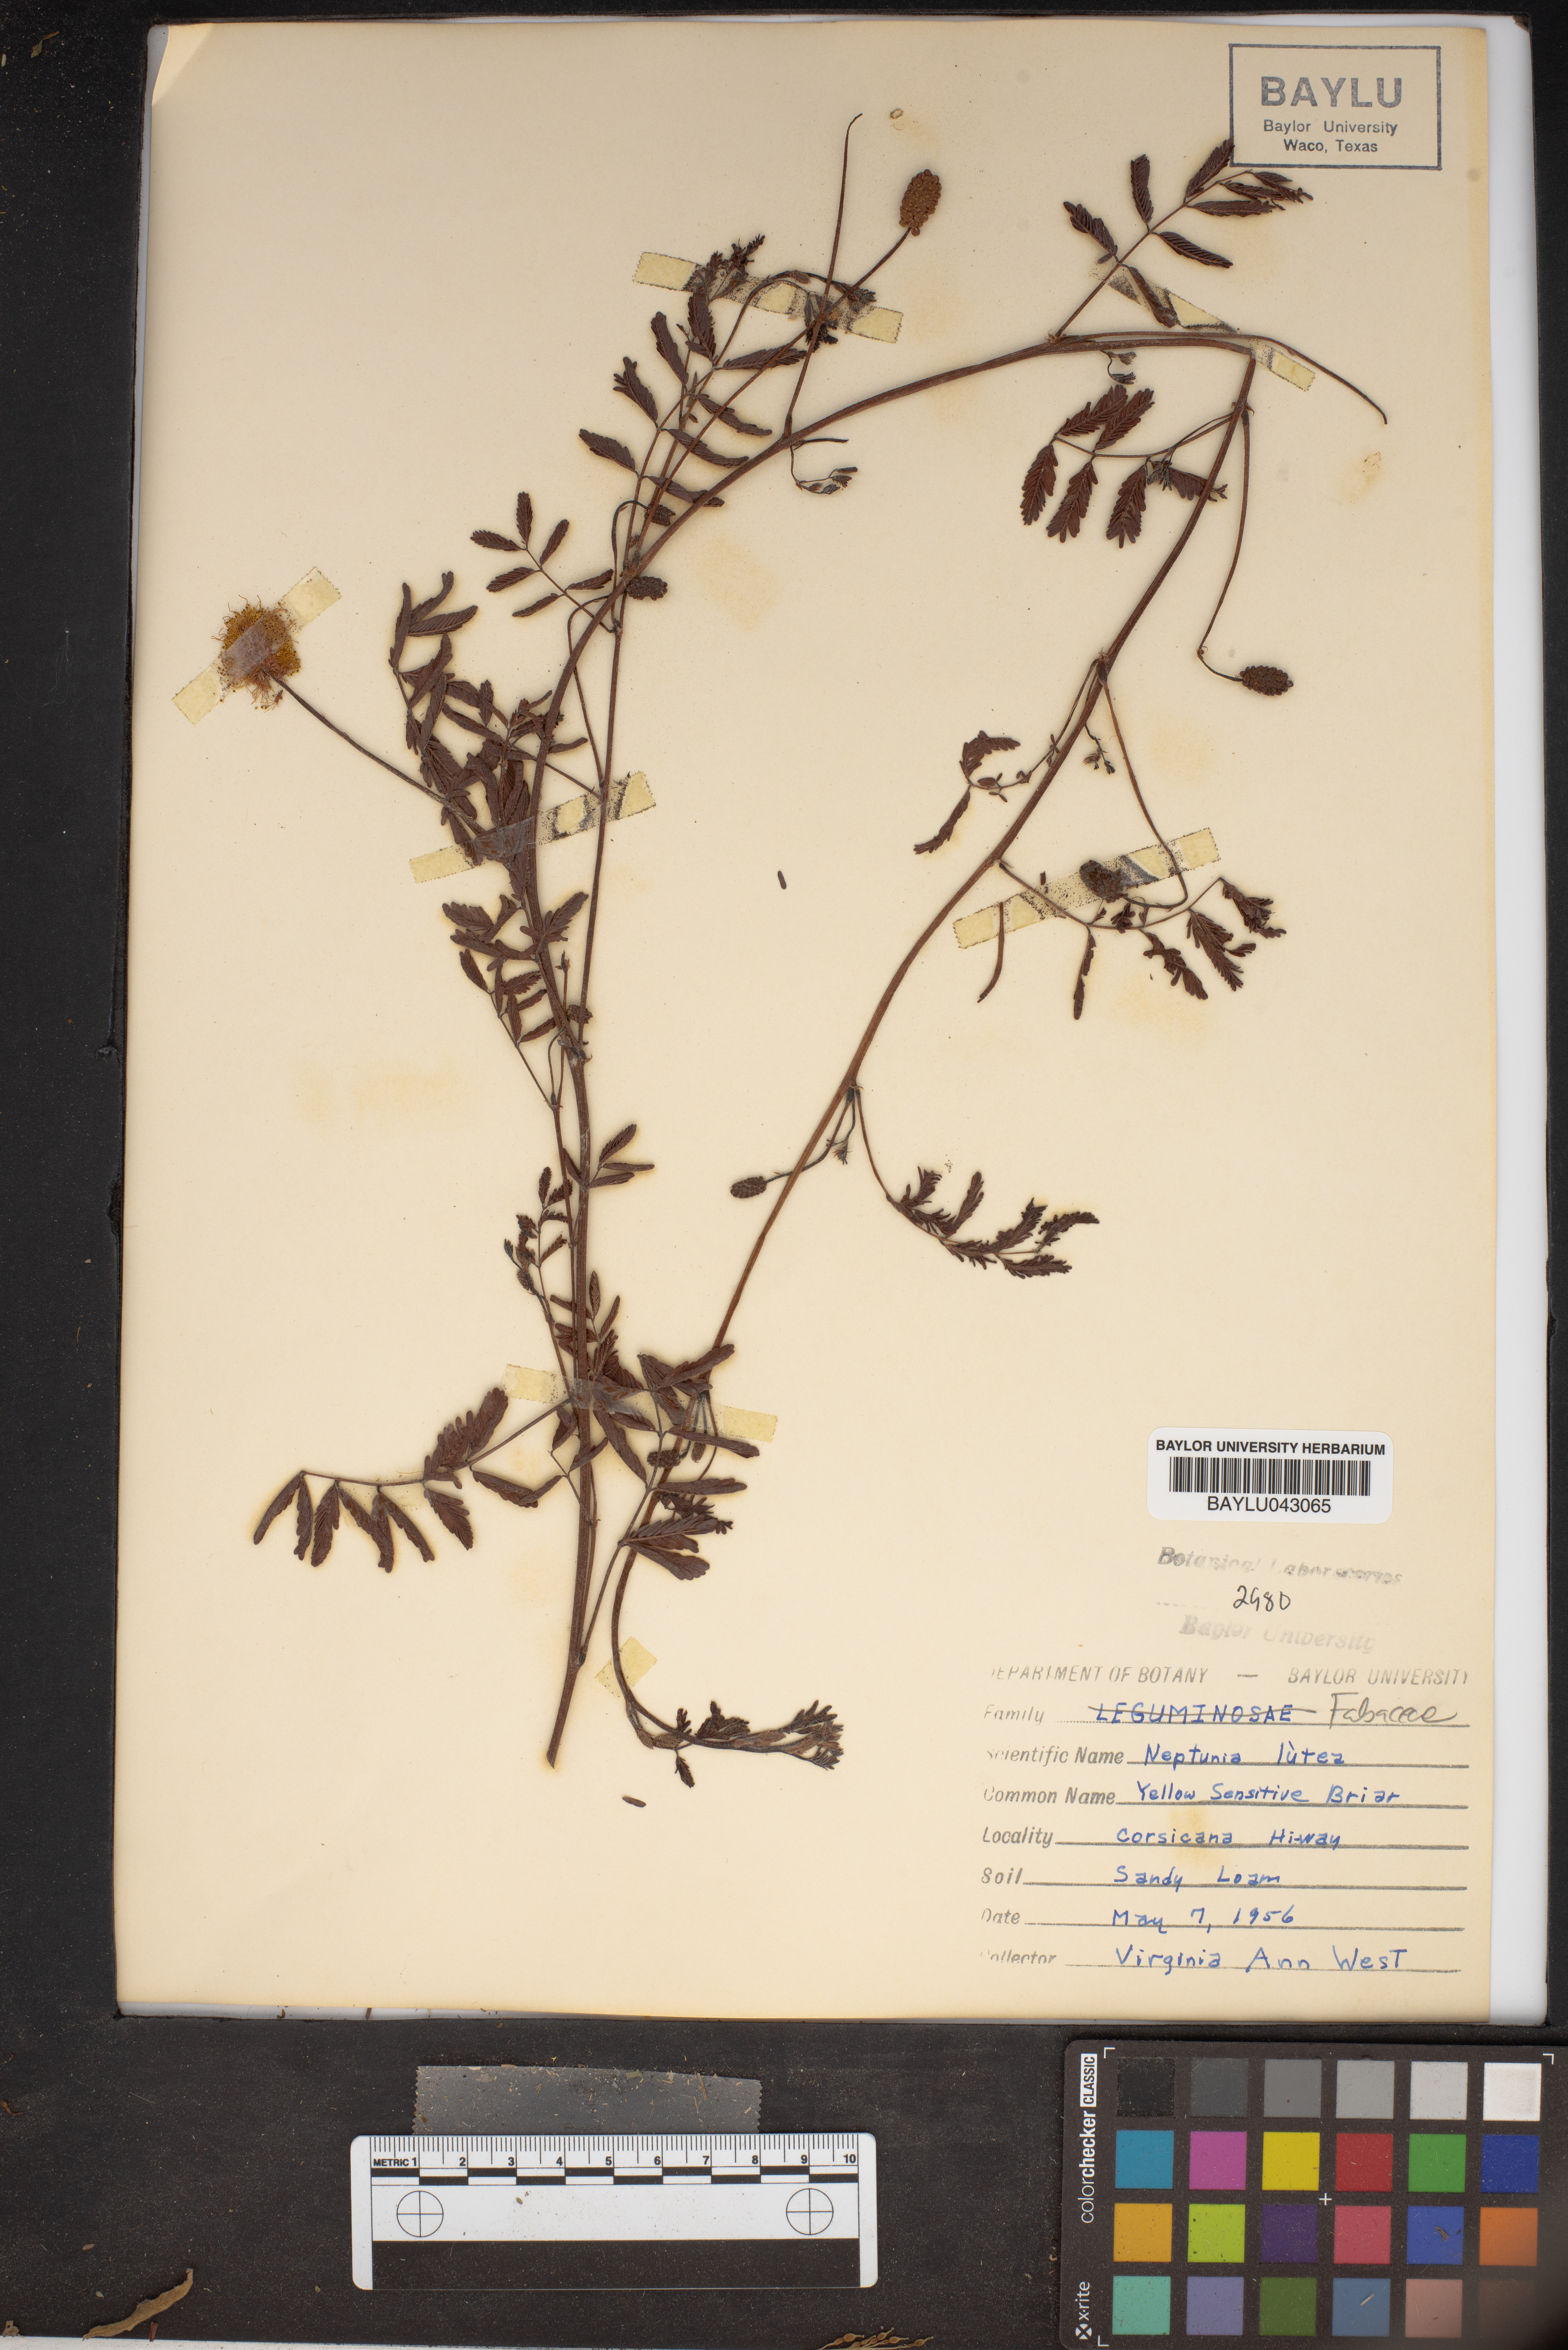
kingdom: Plantae
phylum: Tracheophyta
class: Magnoliopsida
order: Fabales
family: Fabaceae
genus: Neptunia
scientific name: Neptunia lutea
